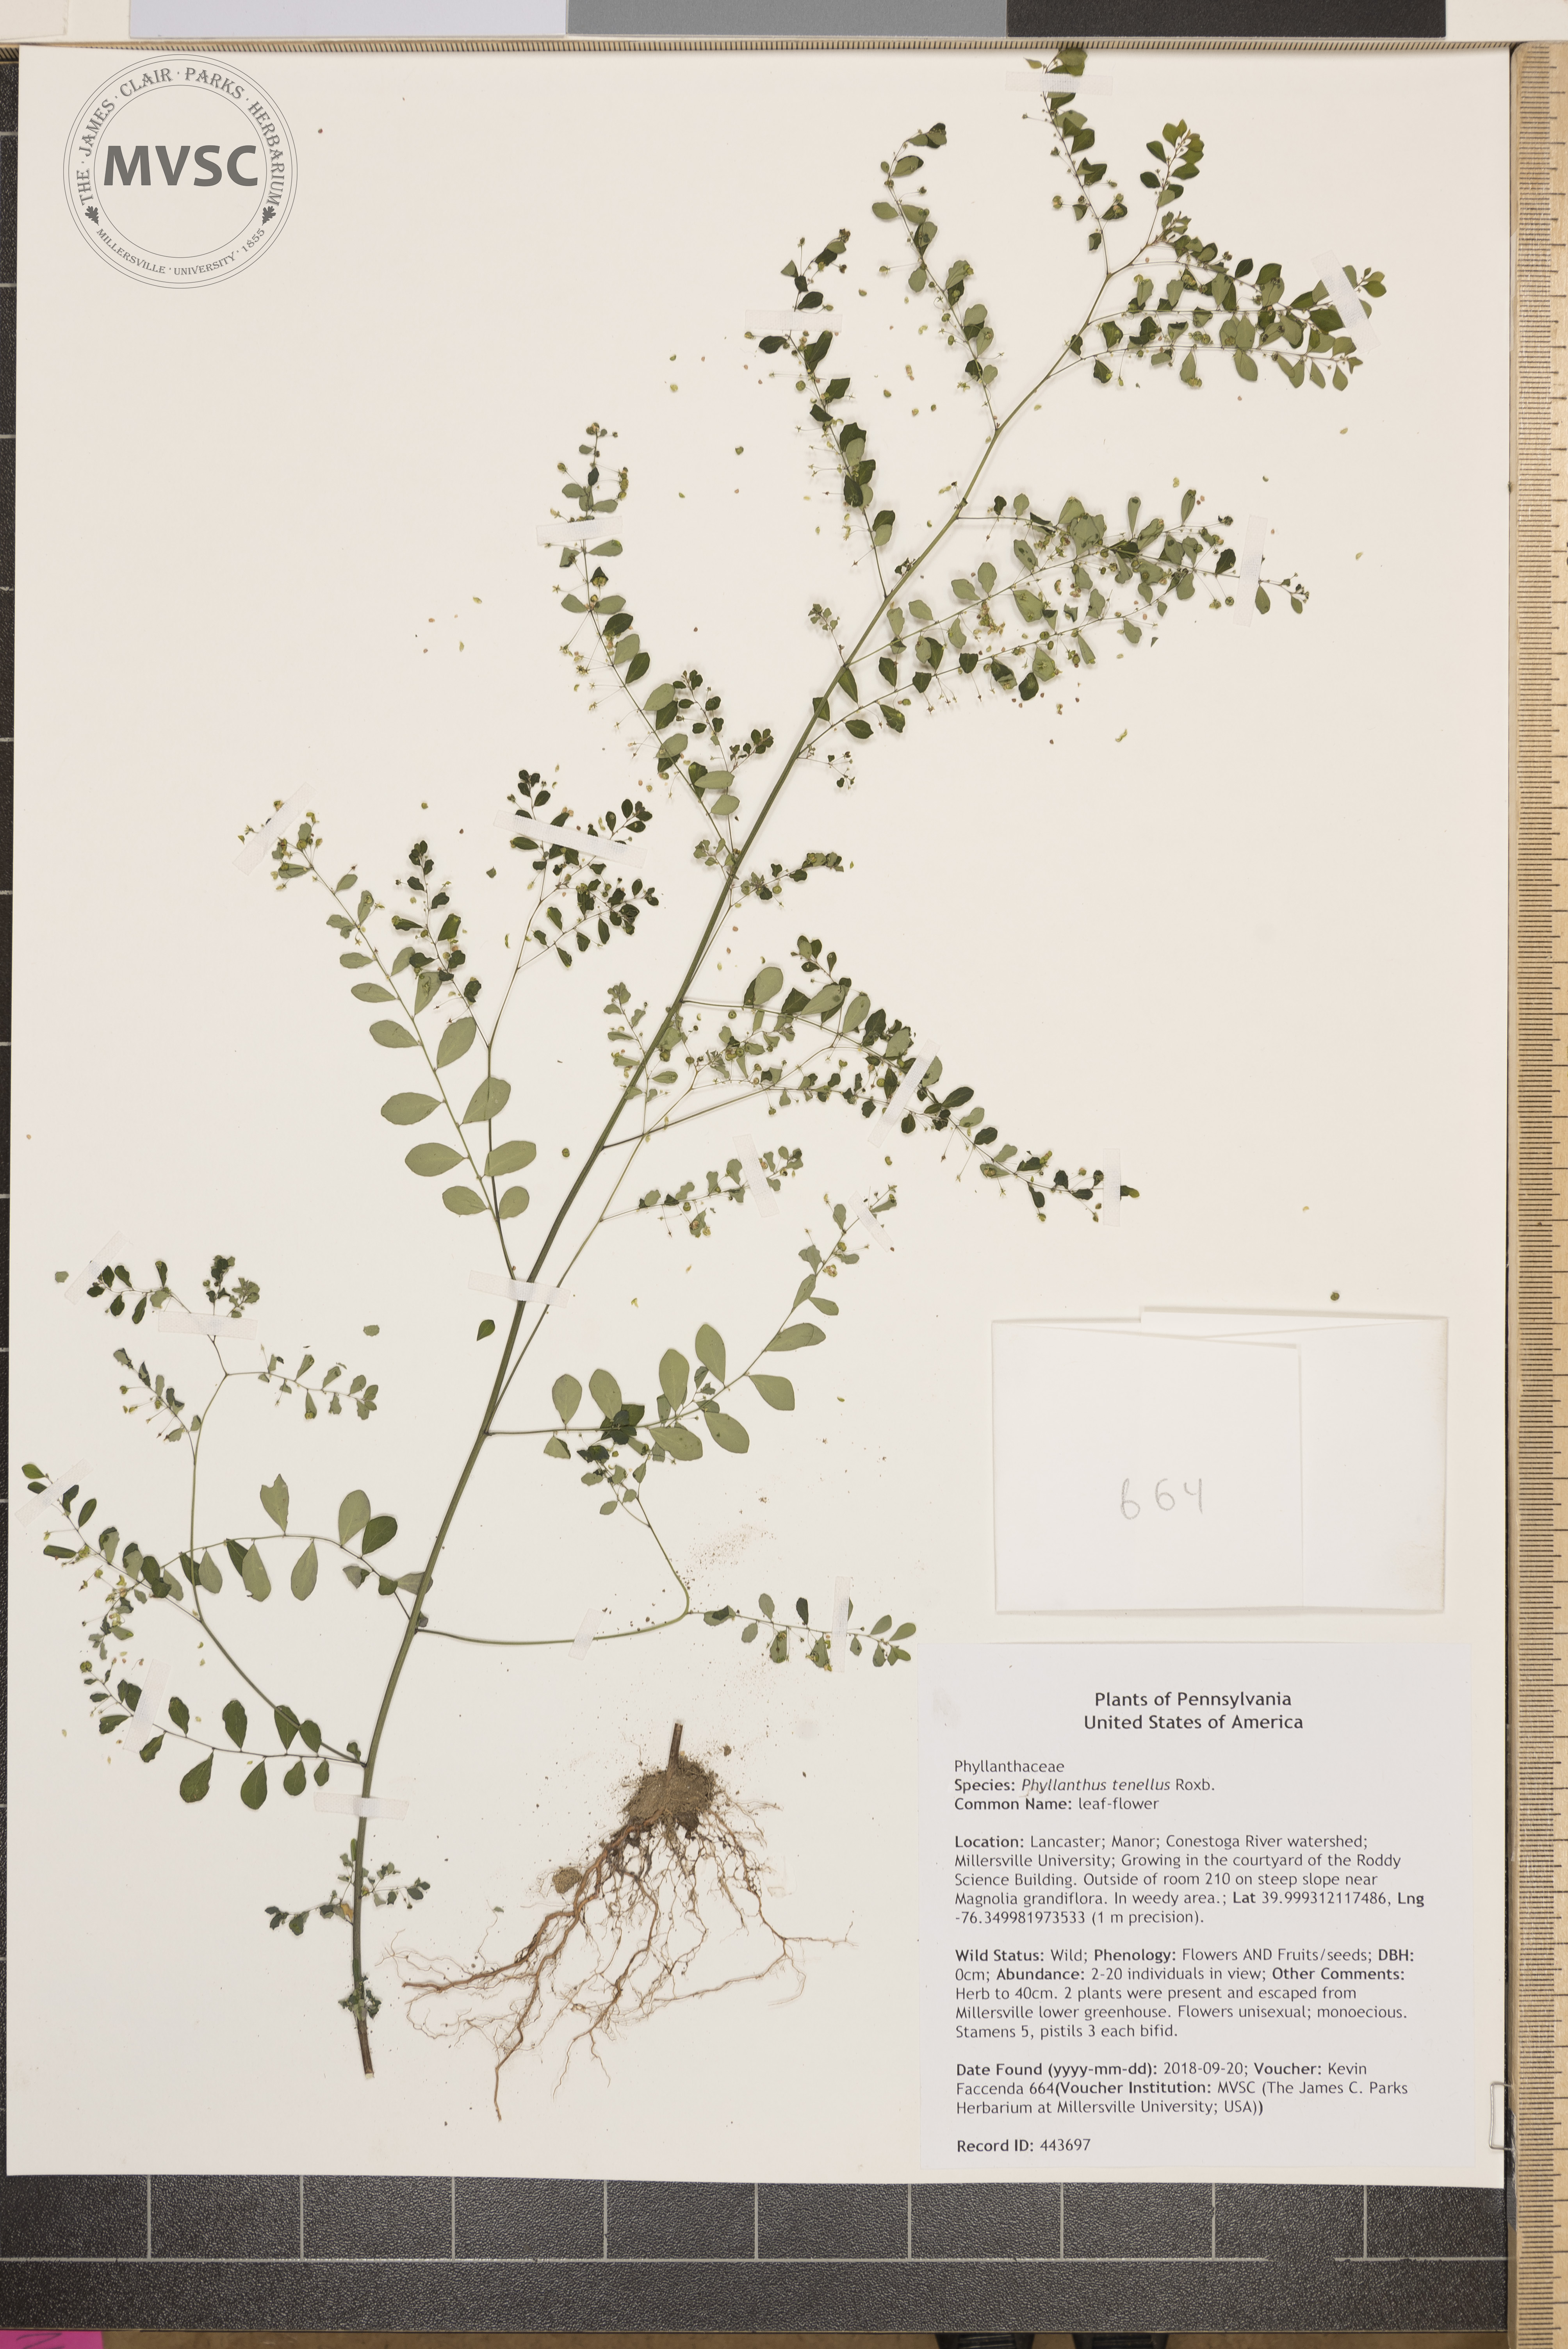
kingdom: Plantae
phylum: Tracheophyta
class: Magnoliopsida
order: Malpighiales
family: Phyllanthaceae
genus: Phyllanthus
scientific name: Phyllanthus tenellus
